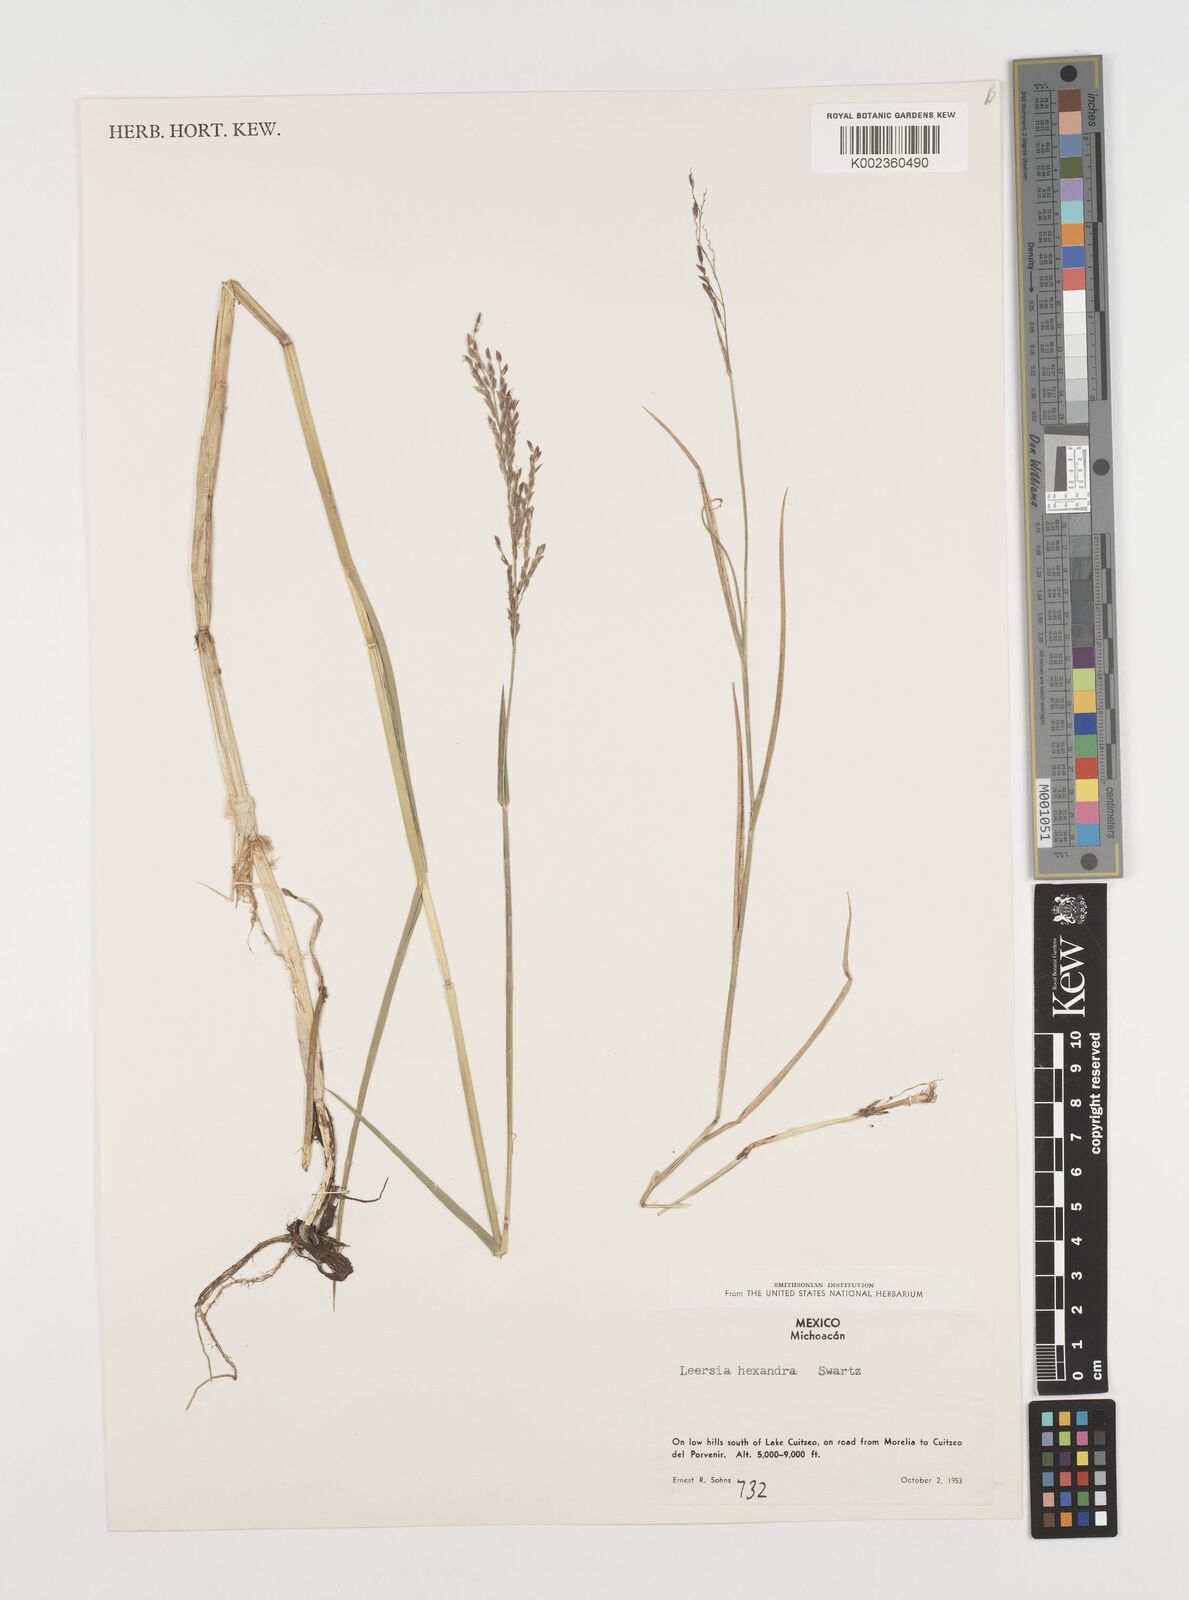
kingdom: Plantae
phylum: Tracheophyta
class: Liliopsida
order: Poales
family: Poaceae
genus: Leersia
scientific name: Leersia hexandra
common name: Southern cut grass
